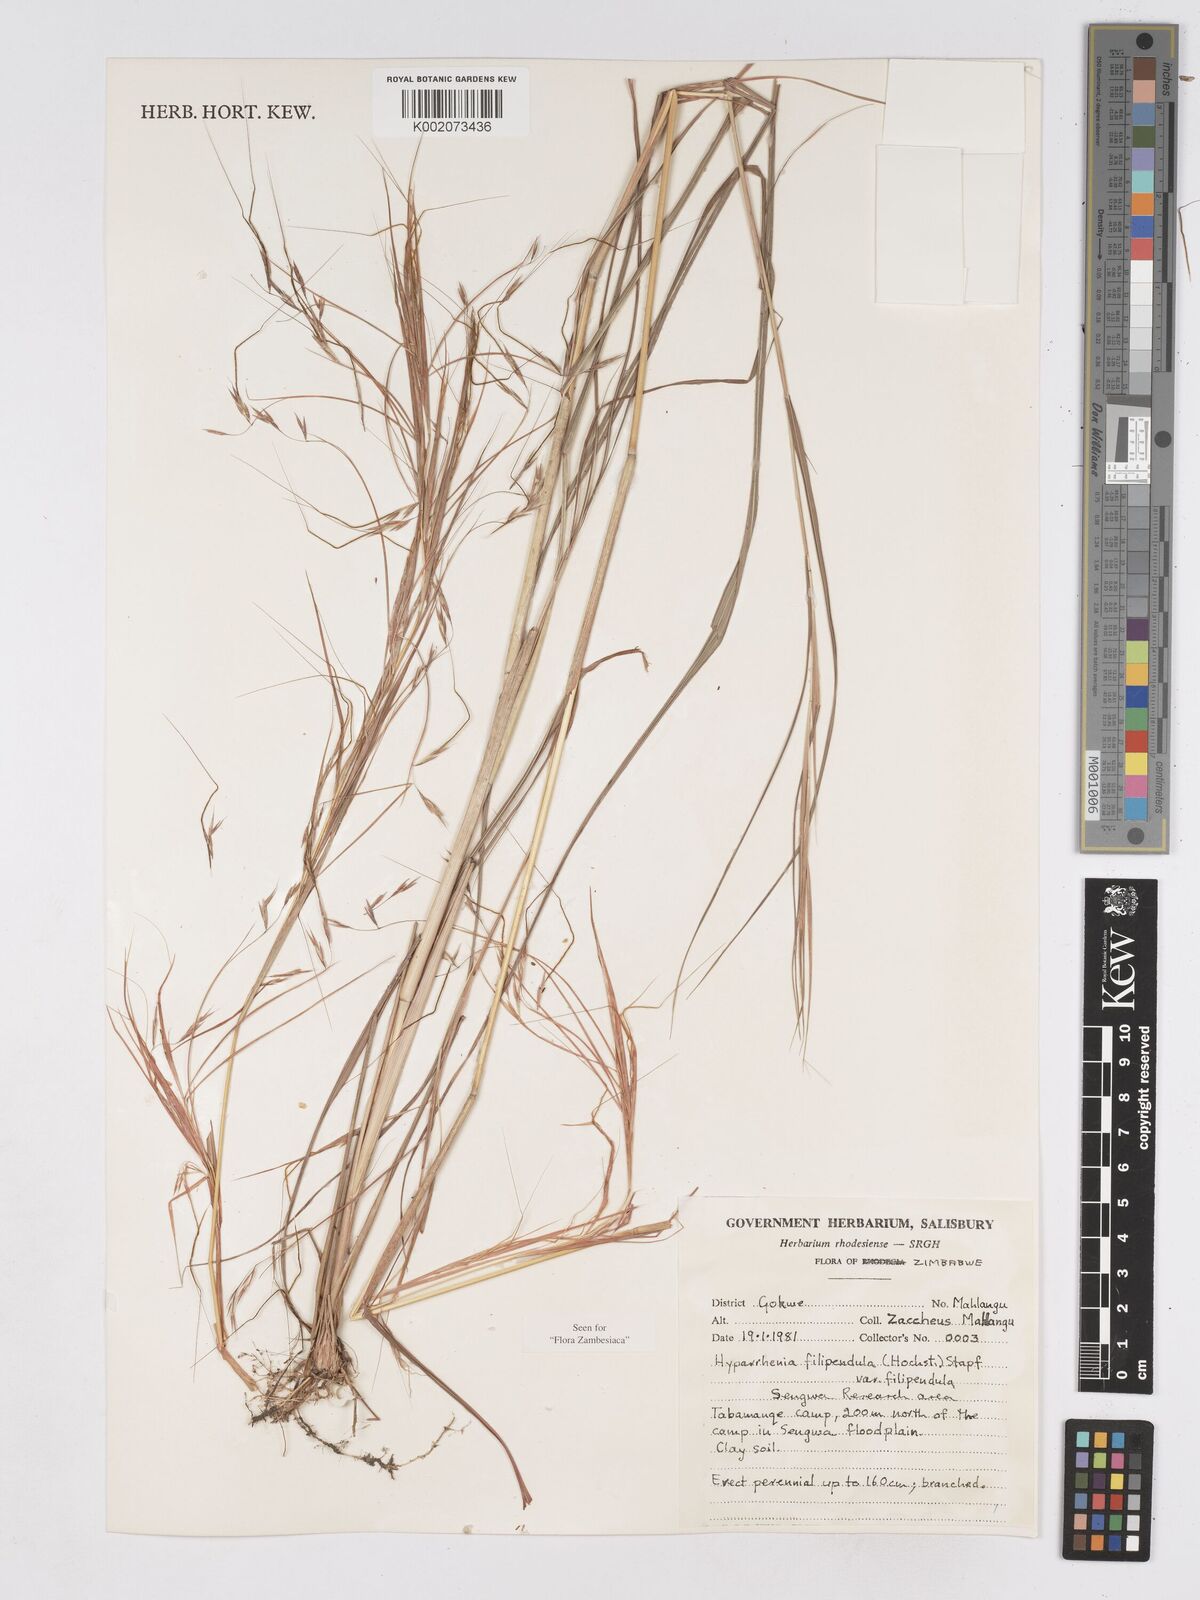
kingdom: Plantae
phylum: Tracheophyta
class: Liliopsida
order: Poales
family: Poaceae
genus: Hyparrhenia
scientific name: Hyparrhenia filipendula
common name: Tambookie grass
